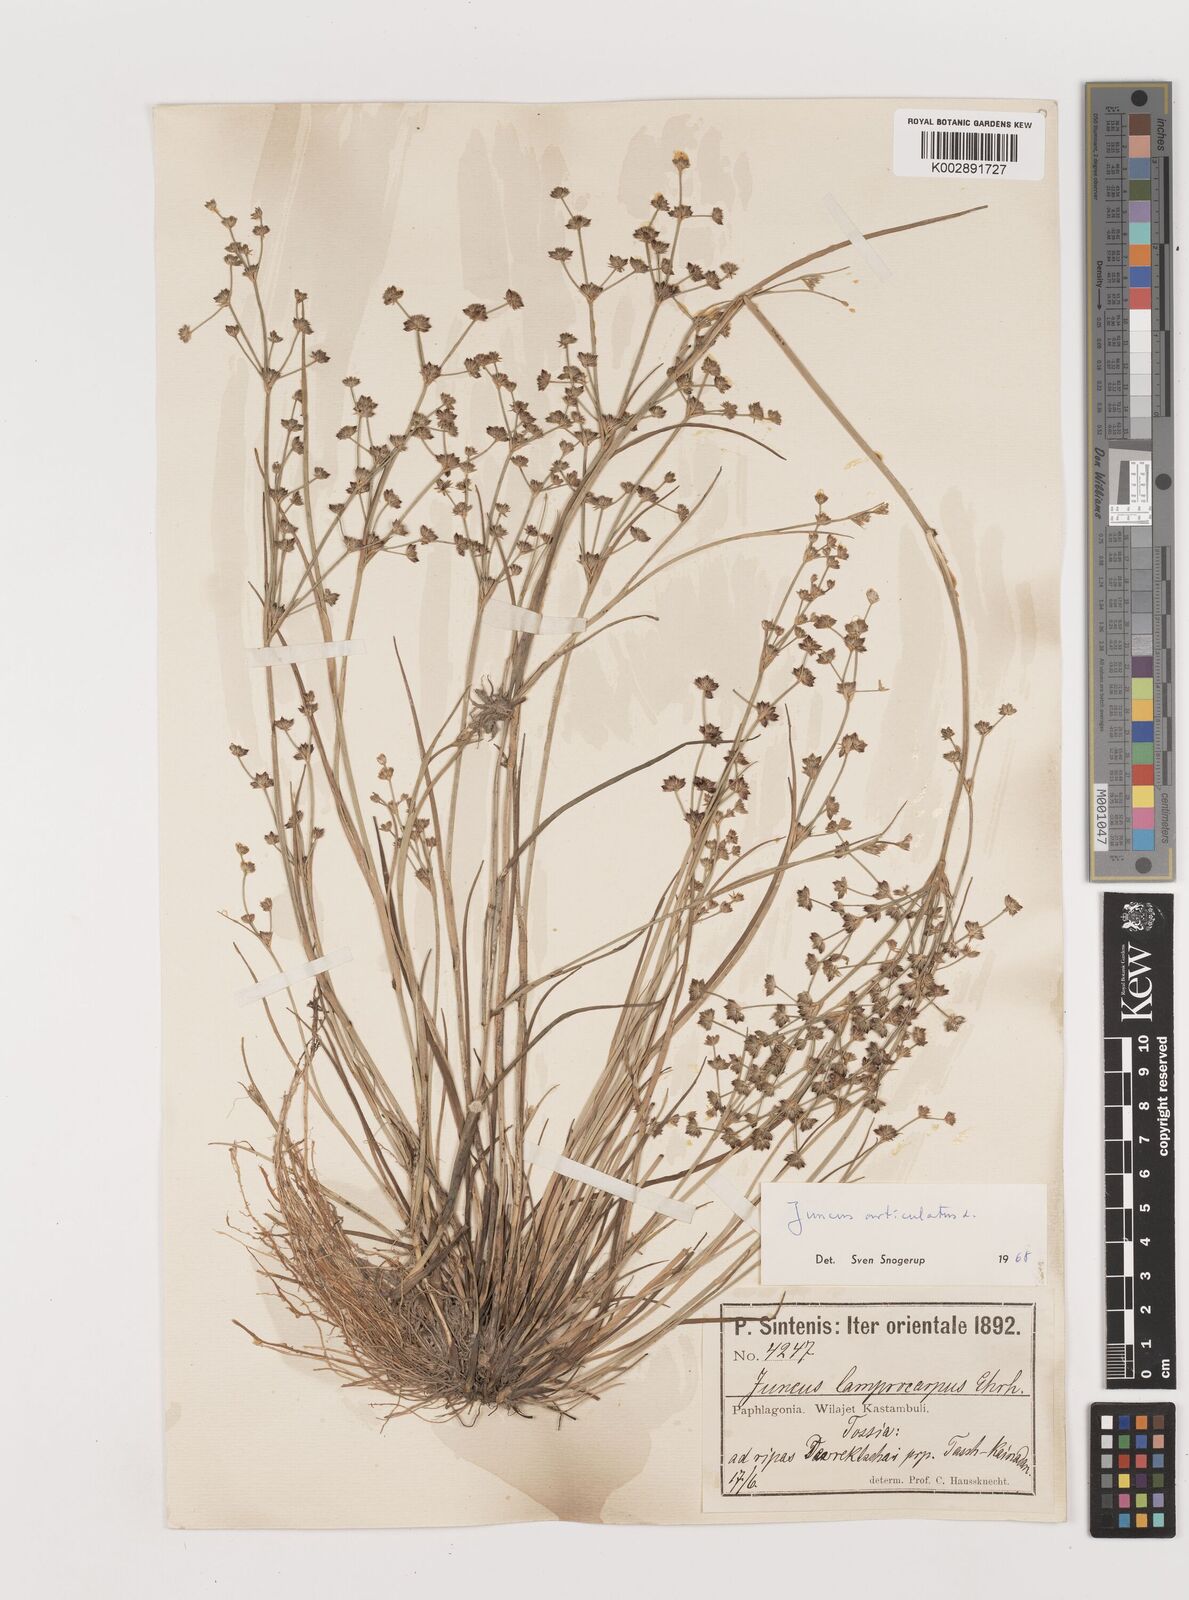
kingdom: Plantae
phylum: Tracheophyta
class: Liliopsida
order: Poales
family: Juncaceae
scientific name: Juncaceae
